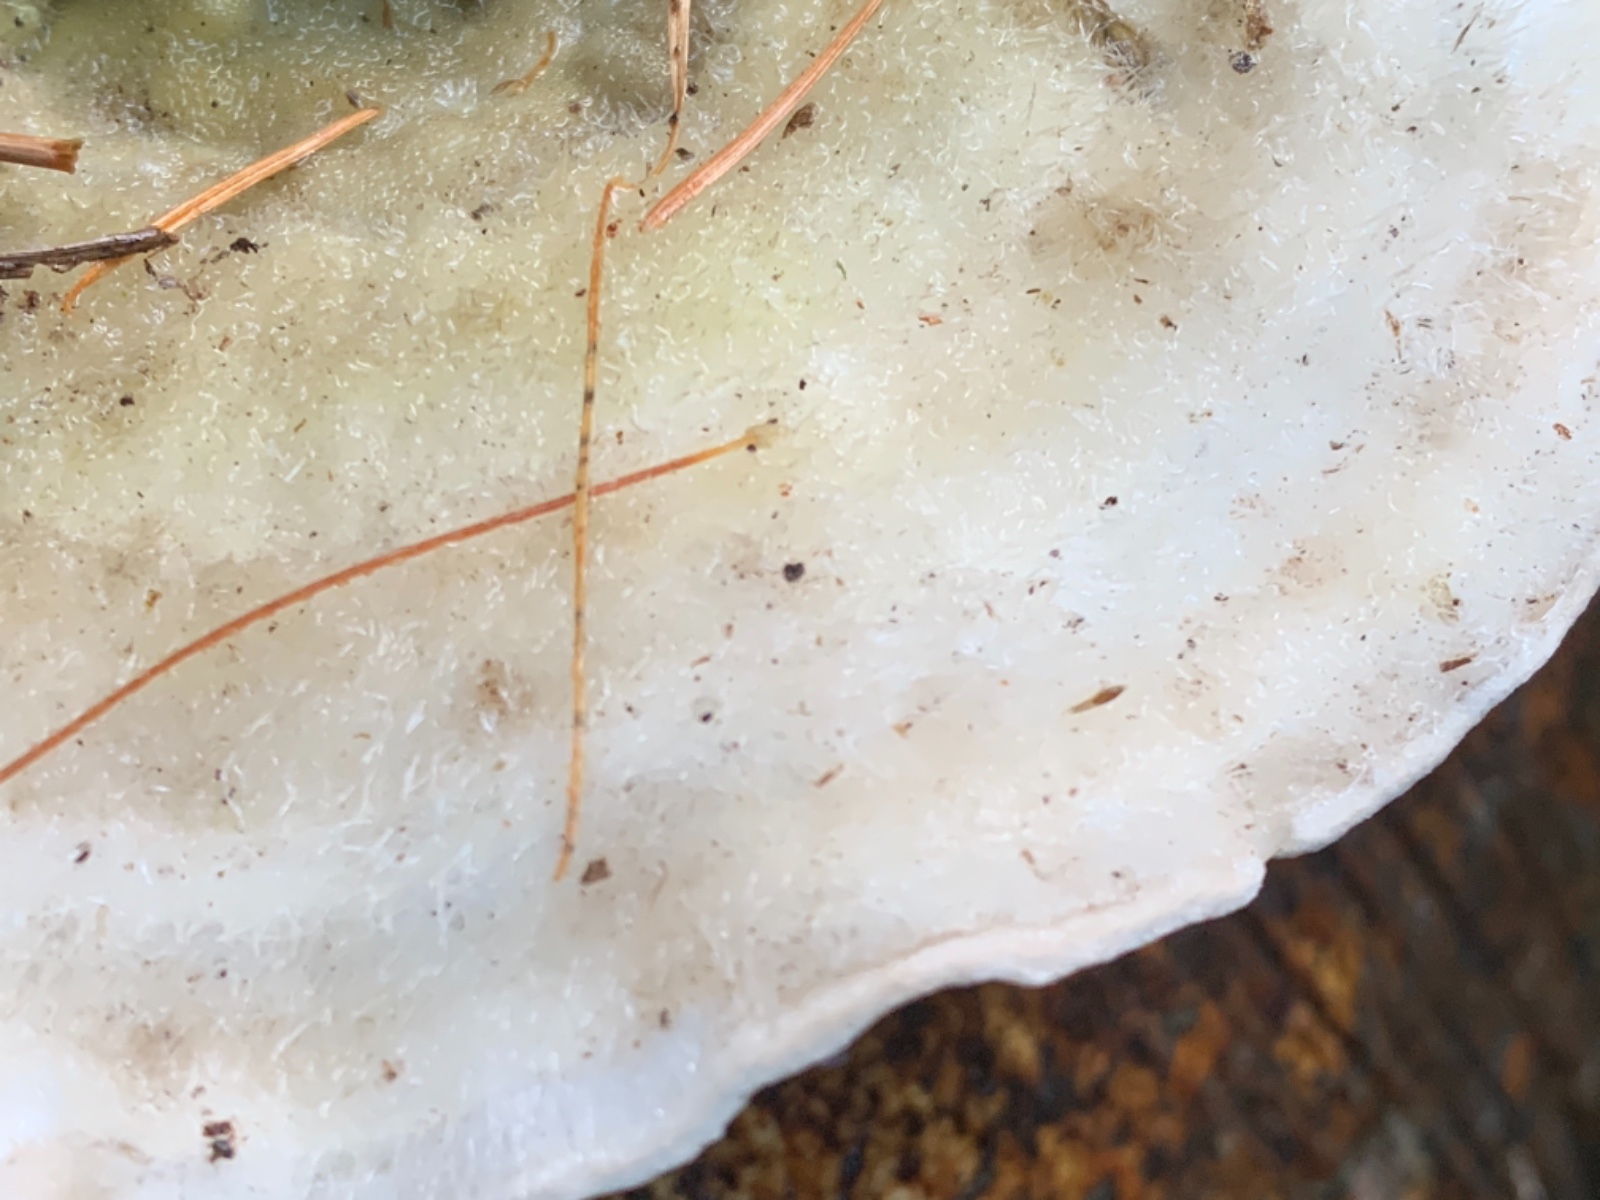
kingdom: Fungi
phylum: Basidiomycota
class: Agaricomycetes
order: Polyporales
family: Polyporaceae
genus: Trametes
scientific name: Trametes hirsuta
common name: håret læderporesvamp
